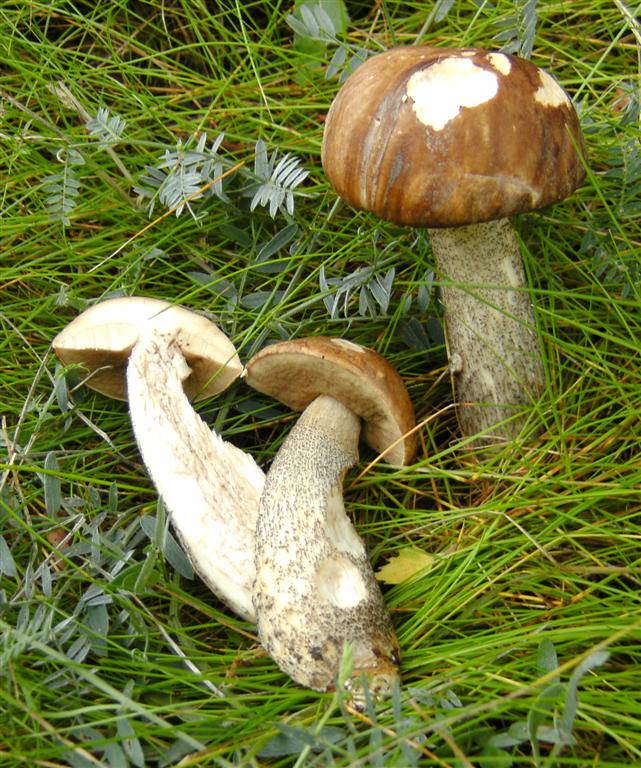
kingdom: Fungi
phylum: Basidiomycota
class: Agaricomycetes
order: Boletales
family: Boletaceae
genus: Leccinum
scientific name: Leccinum scabrum
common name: brun skælrørhat
